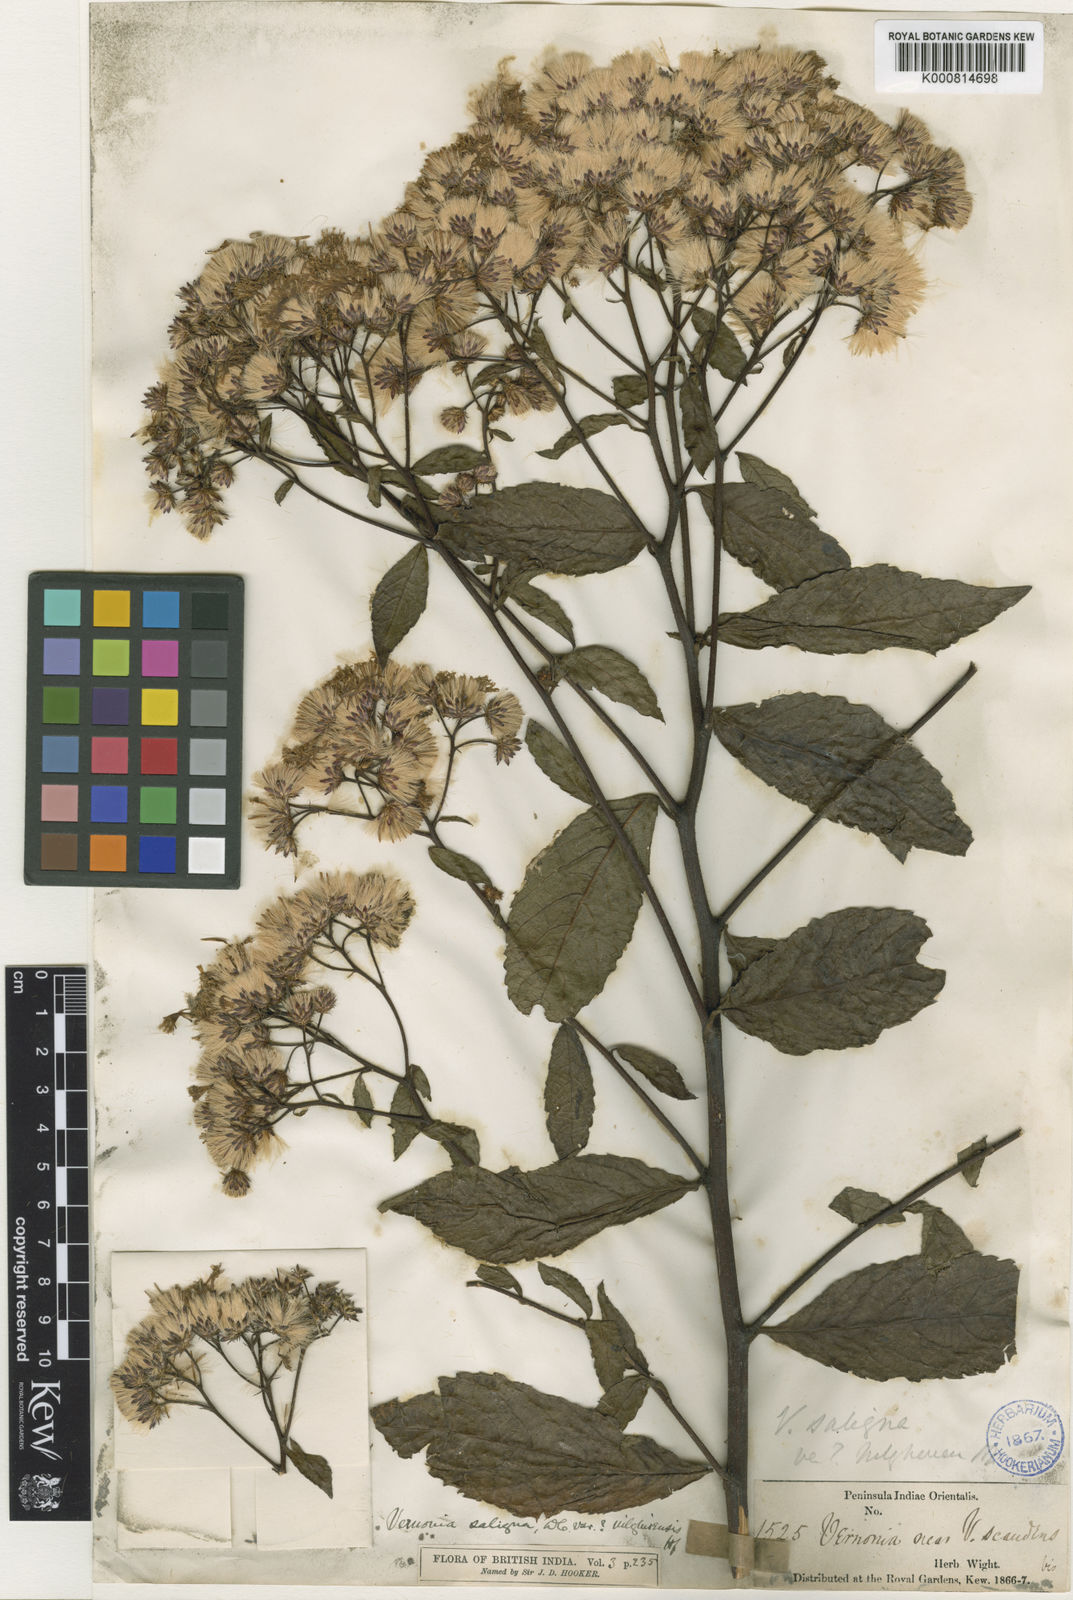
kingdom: Plantae
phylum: Tracheophyta
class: Magnoliopsida
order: Asterales
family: Asteraceae
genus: Acilepis
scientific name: Acilepis saligna
